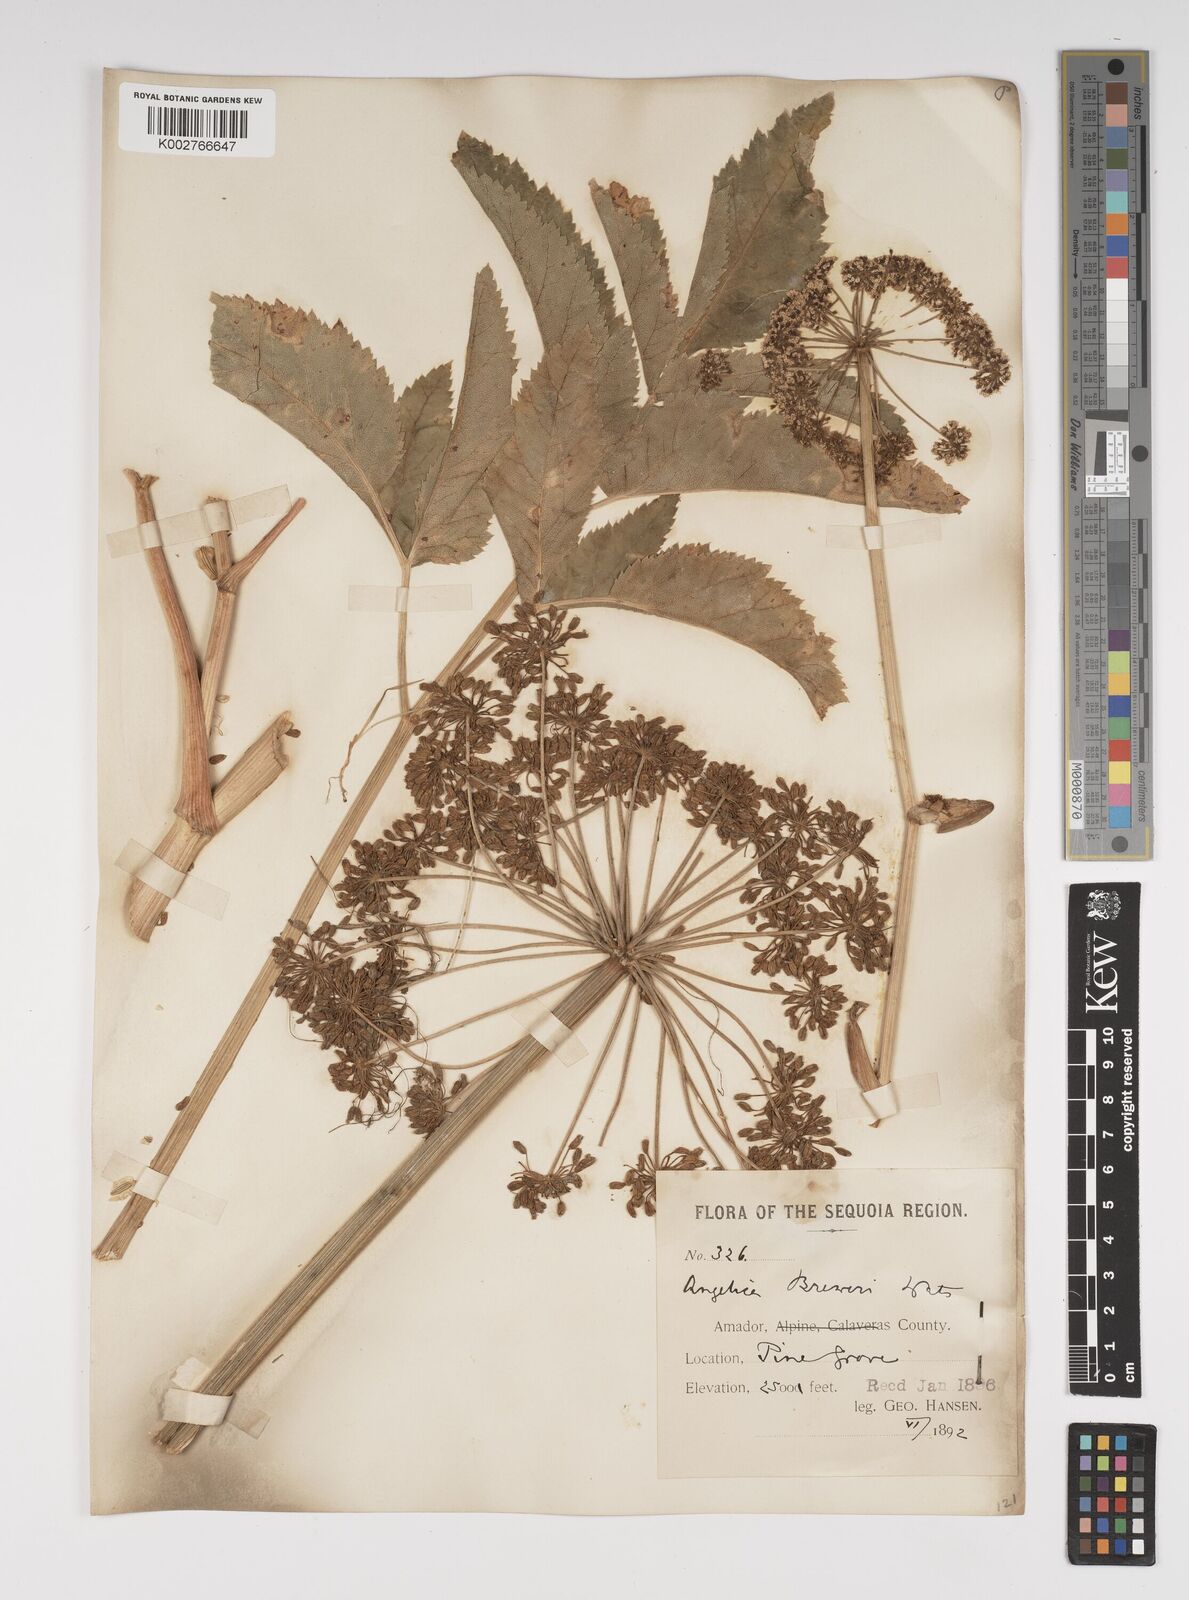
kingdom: Plantae
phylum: Tracheophyta
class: Magnoliopsida
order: Apiales
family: Apiaceae
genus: Angelica
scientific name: Angelica breweri
